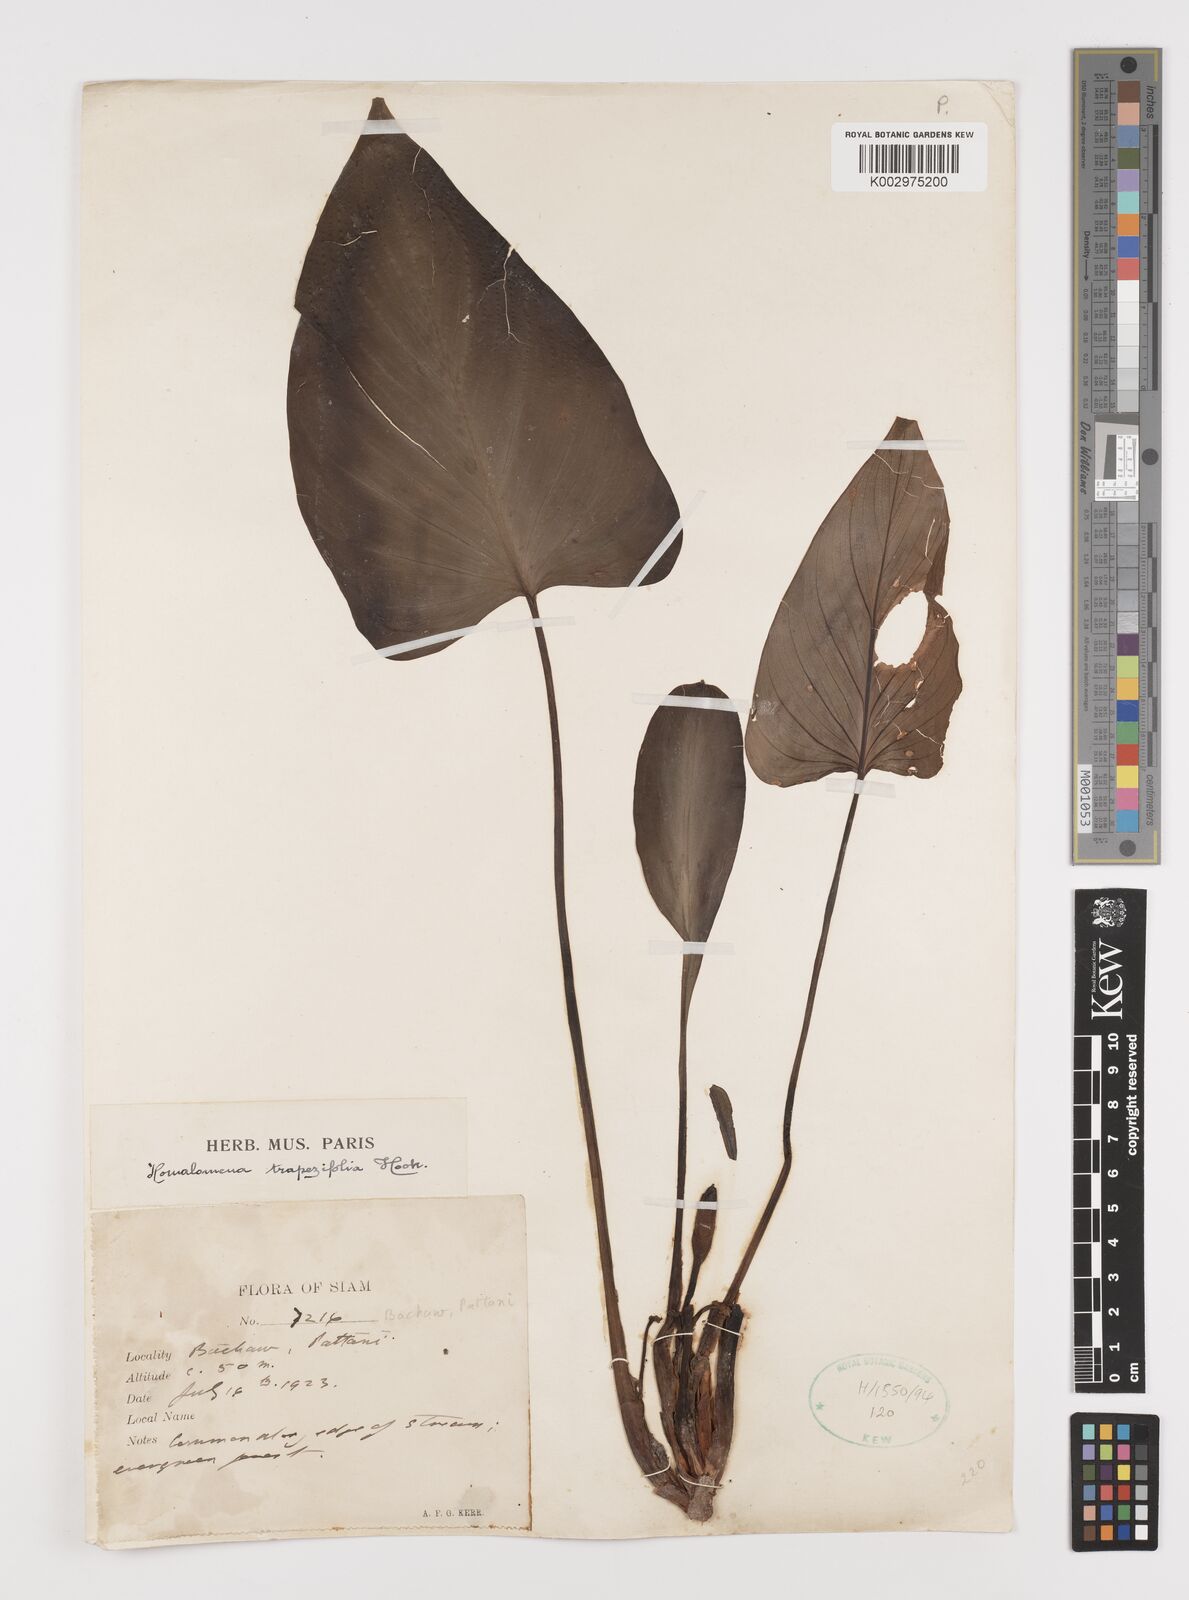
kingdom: Plantae
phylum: Tracheophyta
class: Liliopsida
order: Alismatales
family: Araceae
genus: Homalomena
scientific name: Homalomena griffithii
